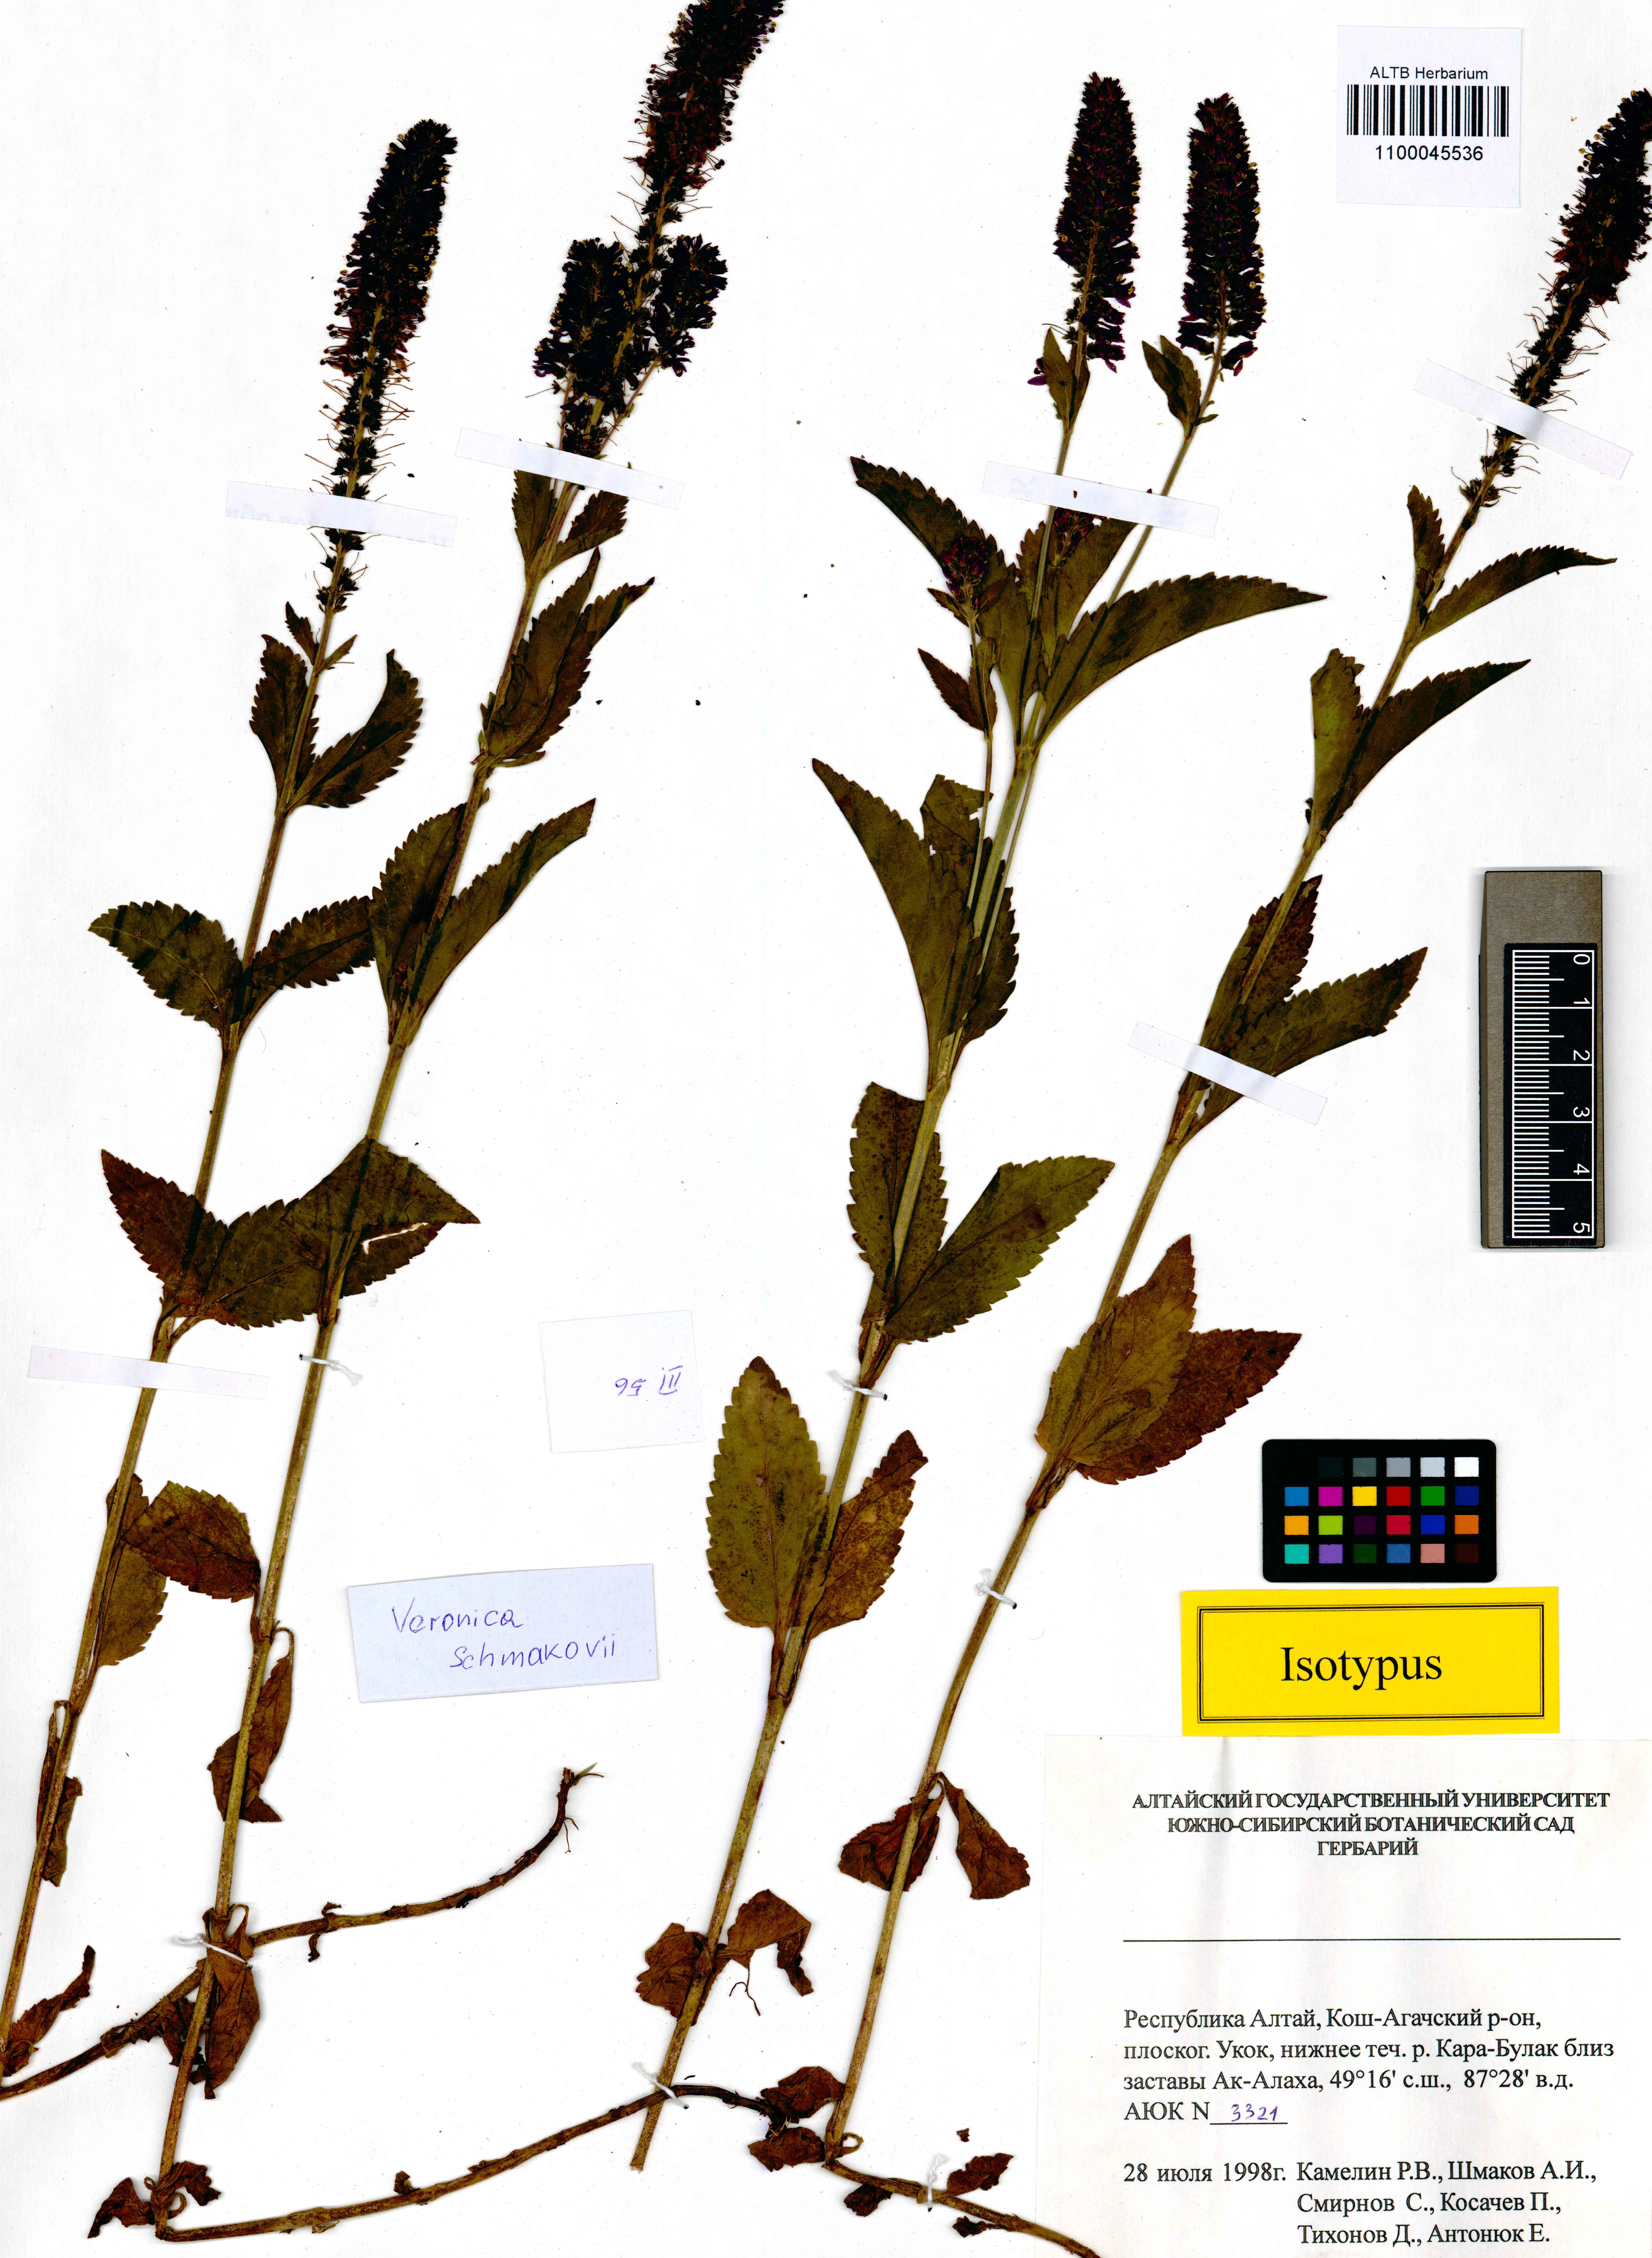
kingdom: Plantae
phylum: Tracheophyta
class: Magnoliopsida
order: Lamiales
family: Plantaginaceae
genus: Veronica
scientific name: Veronica schmakovii
